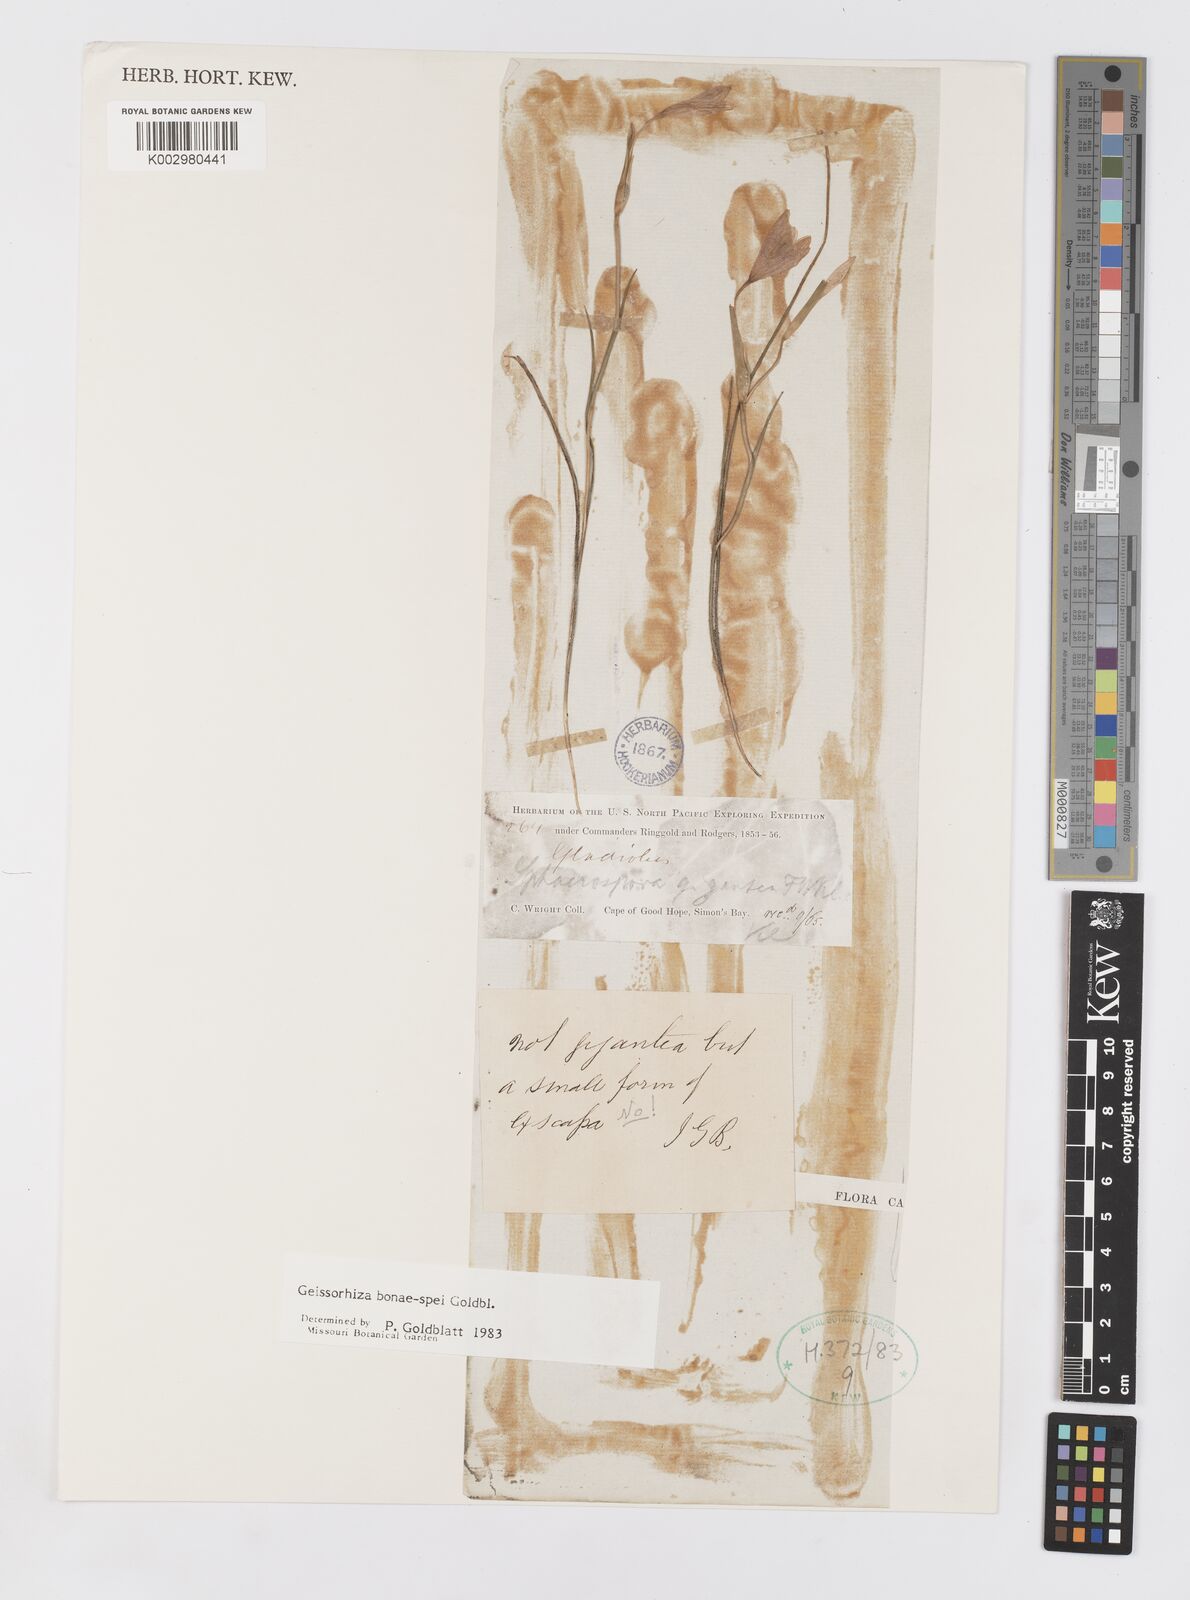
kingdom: Plantae
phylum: Tracheophyta
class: Liliopsida
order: Asparagales
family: Iridaceae
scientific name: Iridaceae
